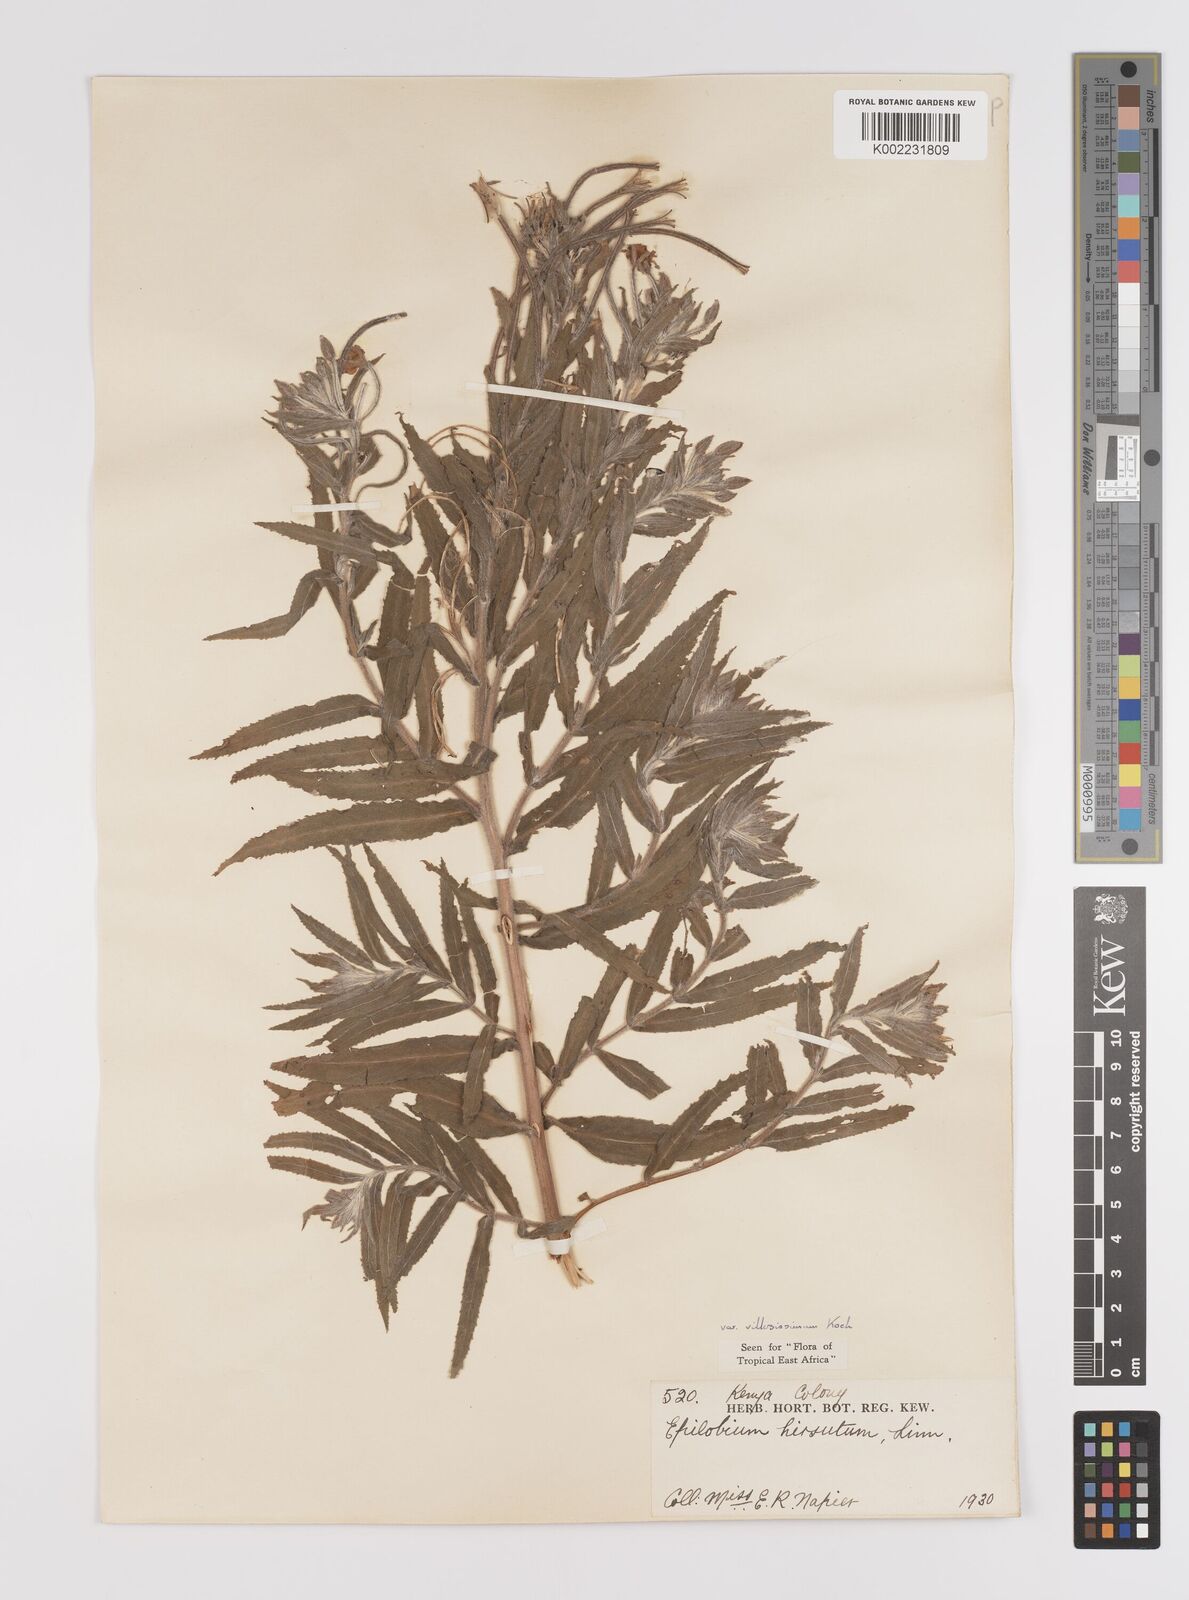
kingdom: Plantae
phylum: Tracheophyta
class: Magnoliopsida
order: Myrtales
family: Onagraceae
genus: Epilobium
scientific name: Epilobium hirsutum
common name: Great willowherb
